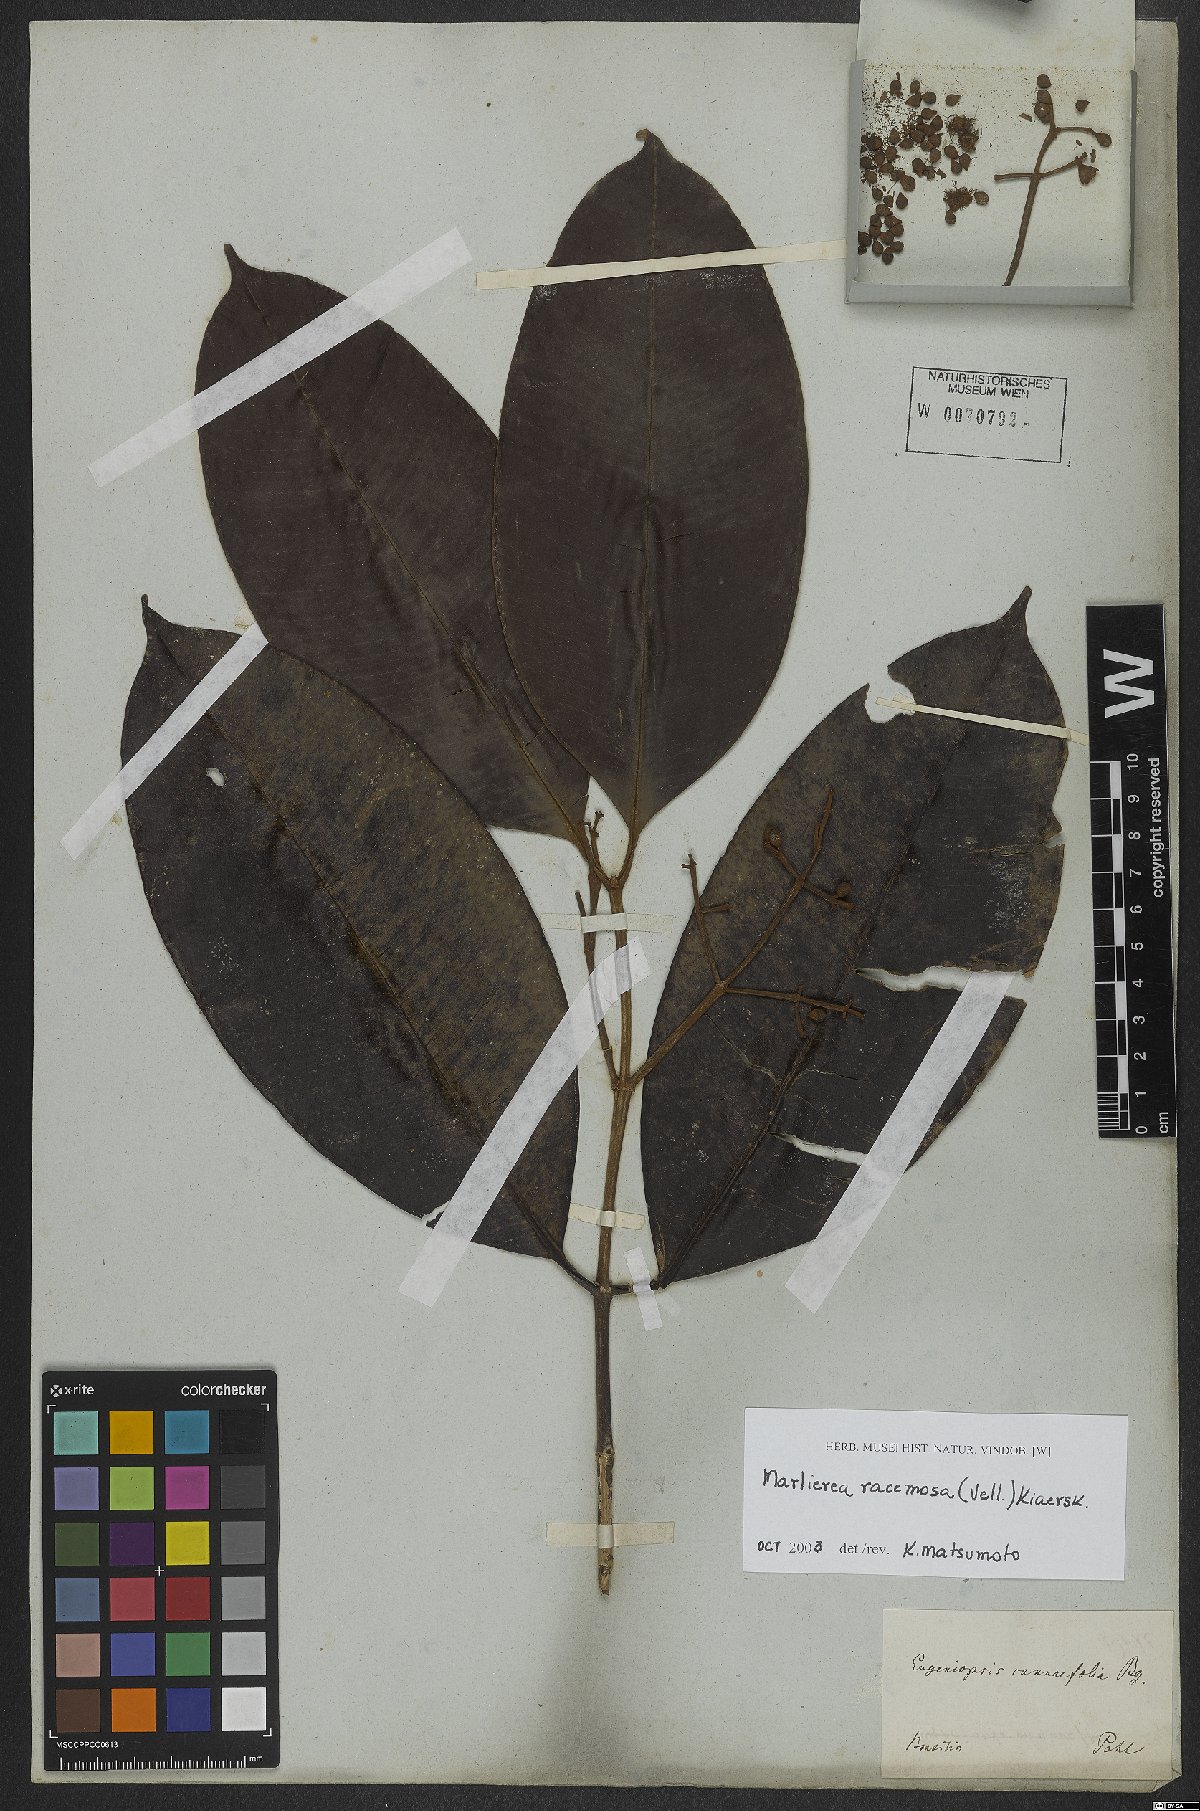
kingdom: Plantae
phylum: Tracheophyta
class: Magnoliopsida
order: Myrtales
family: Myrtaceae
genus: Myrcia
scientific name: Myrcia vellozoi
